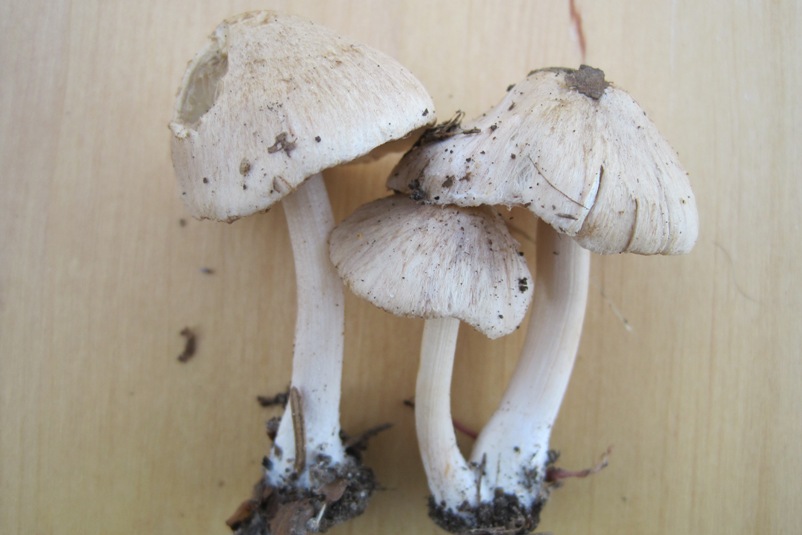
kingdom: Fungi
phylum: Basidiomycota
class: Agaricomycetes
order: Agaricales
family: Inocybaceae
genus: Inocybe
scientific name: Inocybe sindonia
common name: bleg trævlhat
